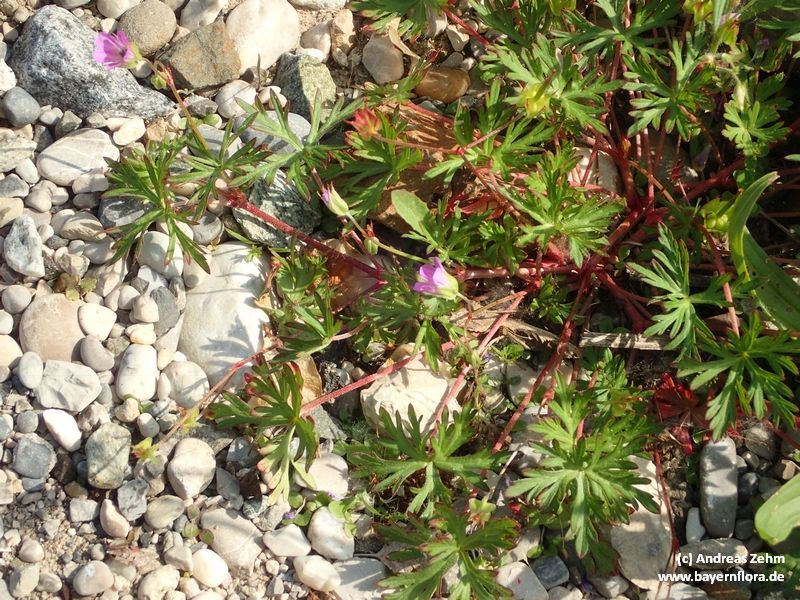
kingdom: Plantae
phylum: Tracheophyta
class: Magnoliopsida
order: Geraniales
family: Geraniaceae
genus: Geranium
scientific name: Geranium columbinum
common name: Long-stalked crane's-bill
